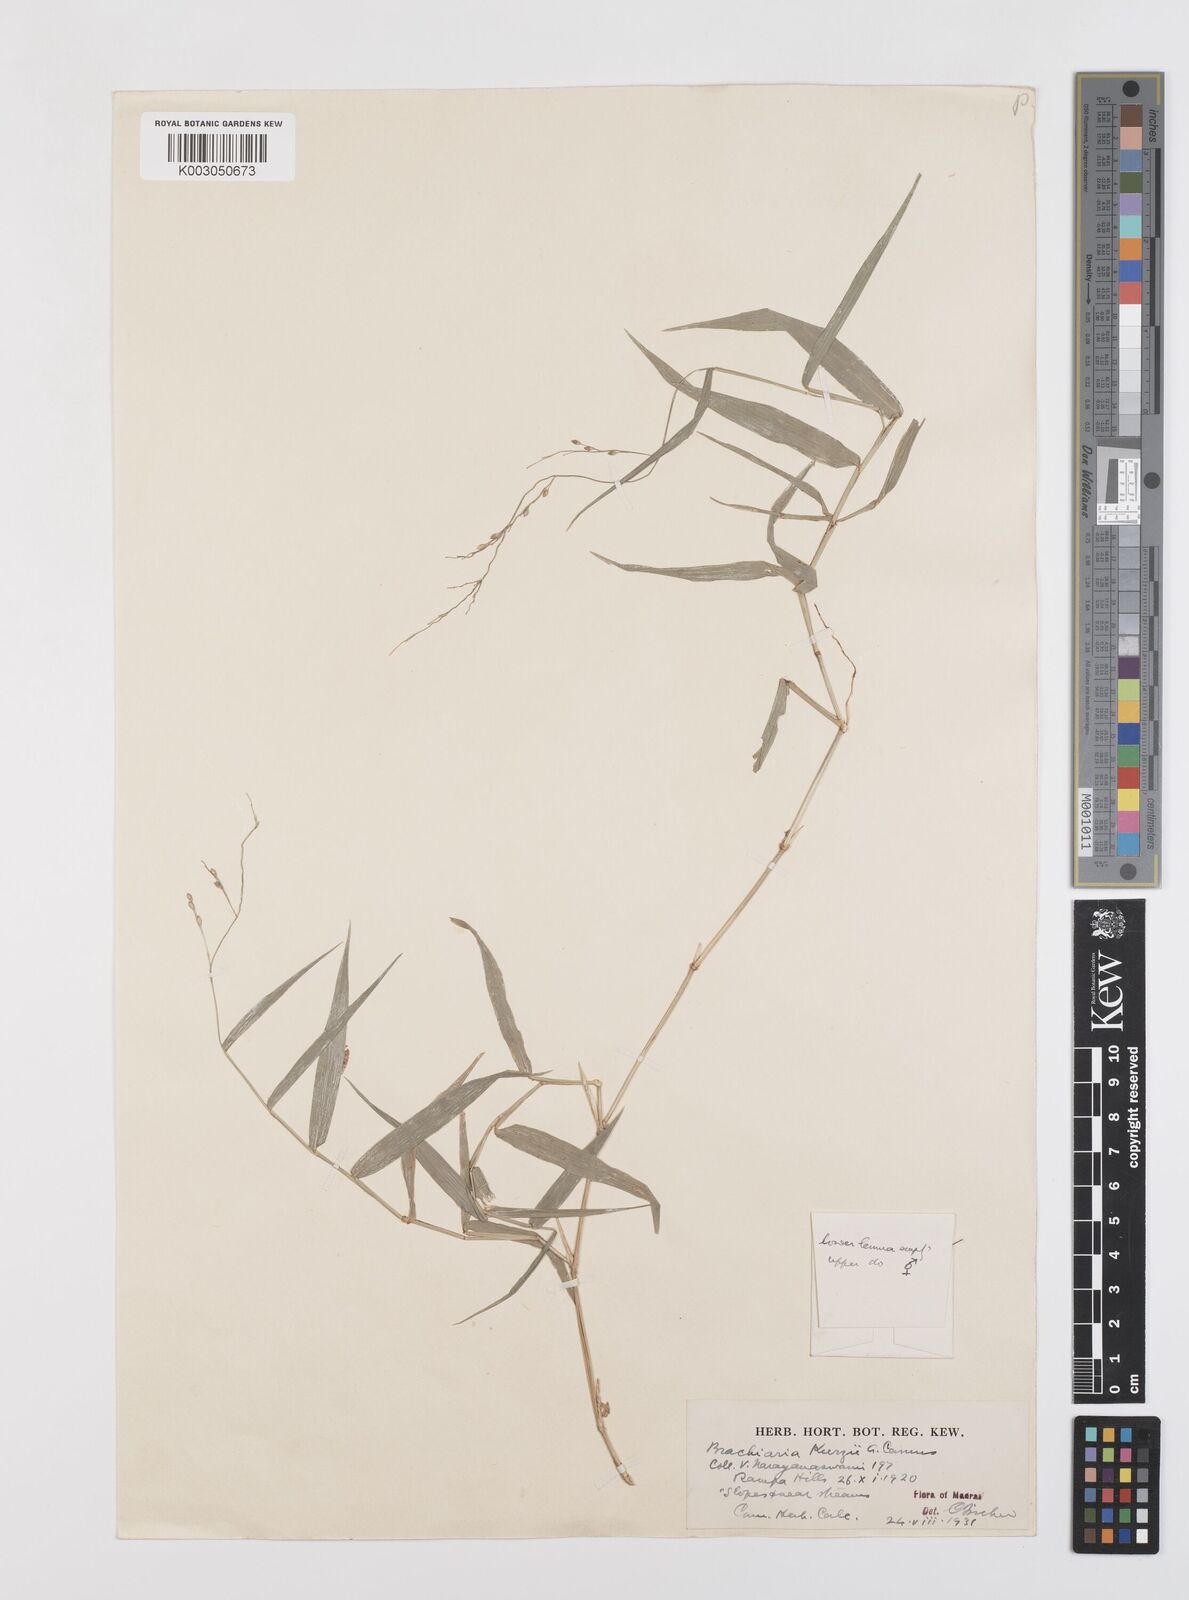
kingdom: Plantae
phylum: Tracheophyta
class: Liliopsida
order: Poales
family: Poaceae
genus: Urochloa
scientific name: Urochloa kurzii
